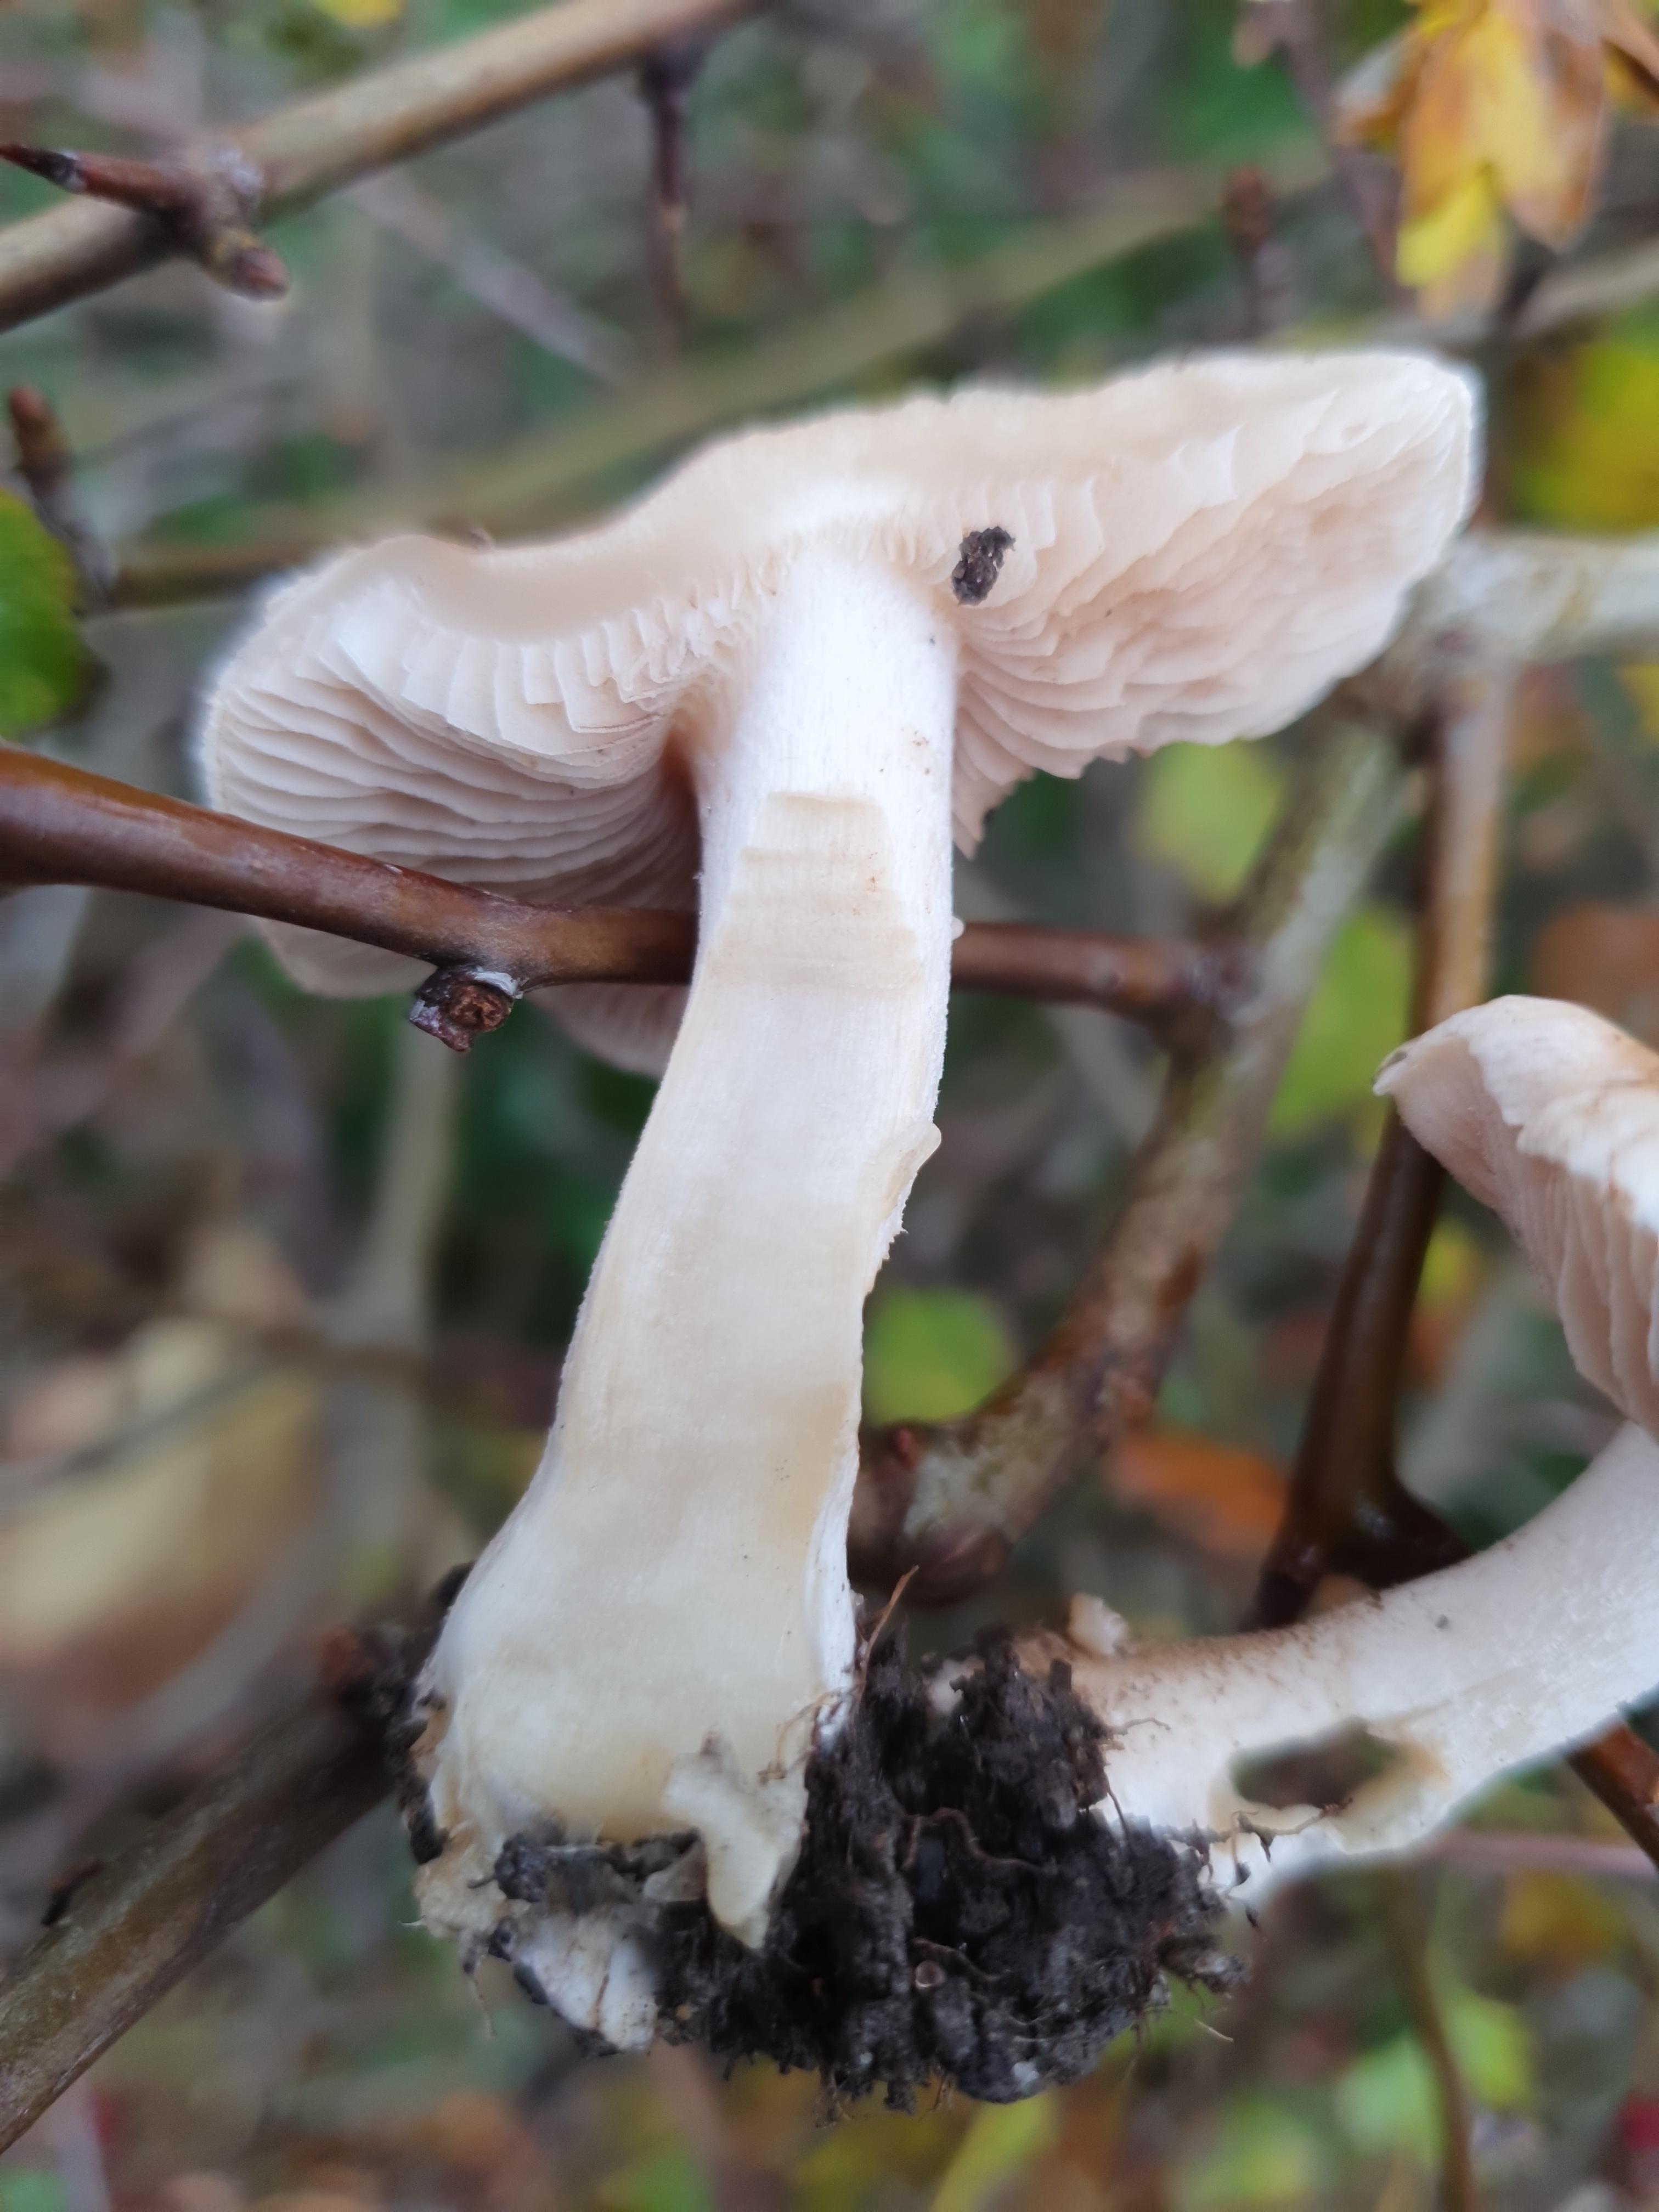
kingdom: Fungi
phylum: Basidiomycota
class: Agaricomycetes
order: Agaricales
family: Hymenogastraceae
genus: Hebeloma
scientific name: Hebeloma
